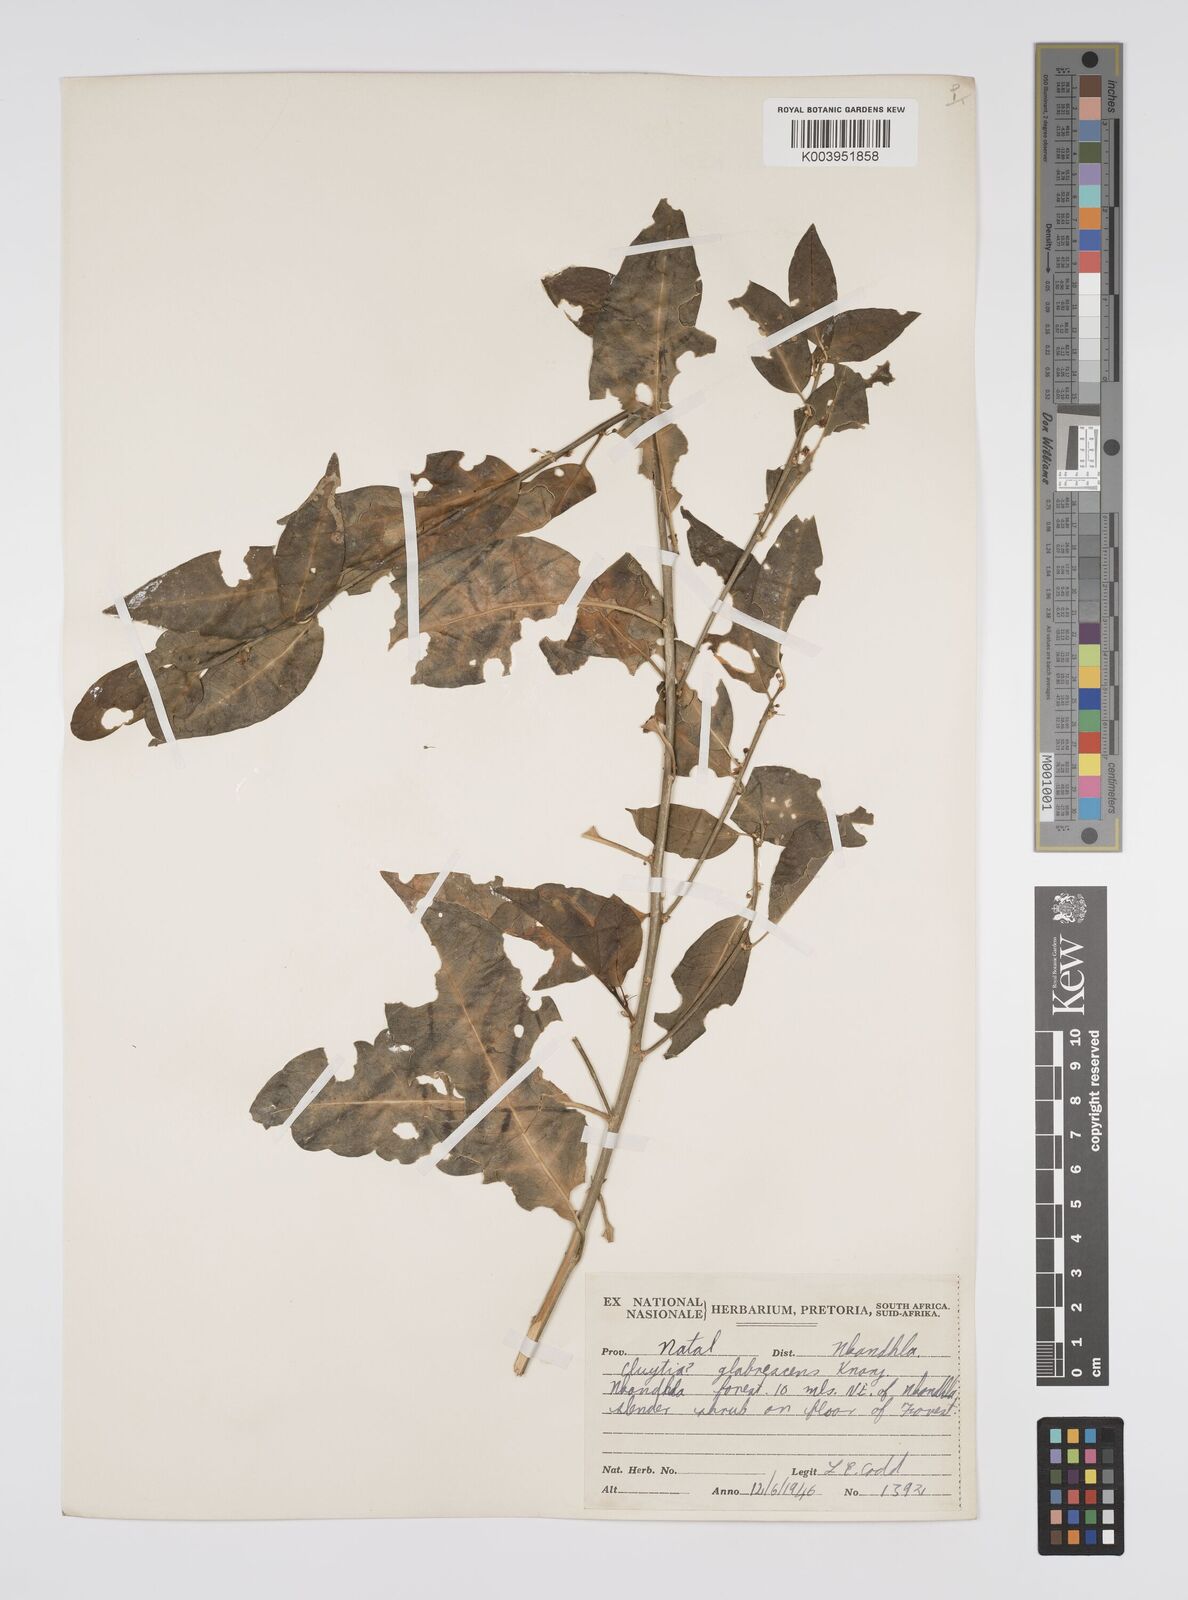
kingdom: Plantae
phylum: Tracheophyta
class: Magnoliopsida
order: Malpighiales
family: Peraceae
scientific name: Peraceae
